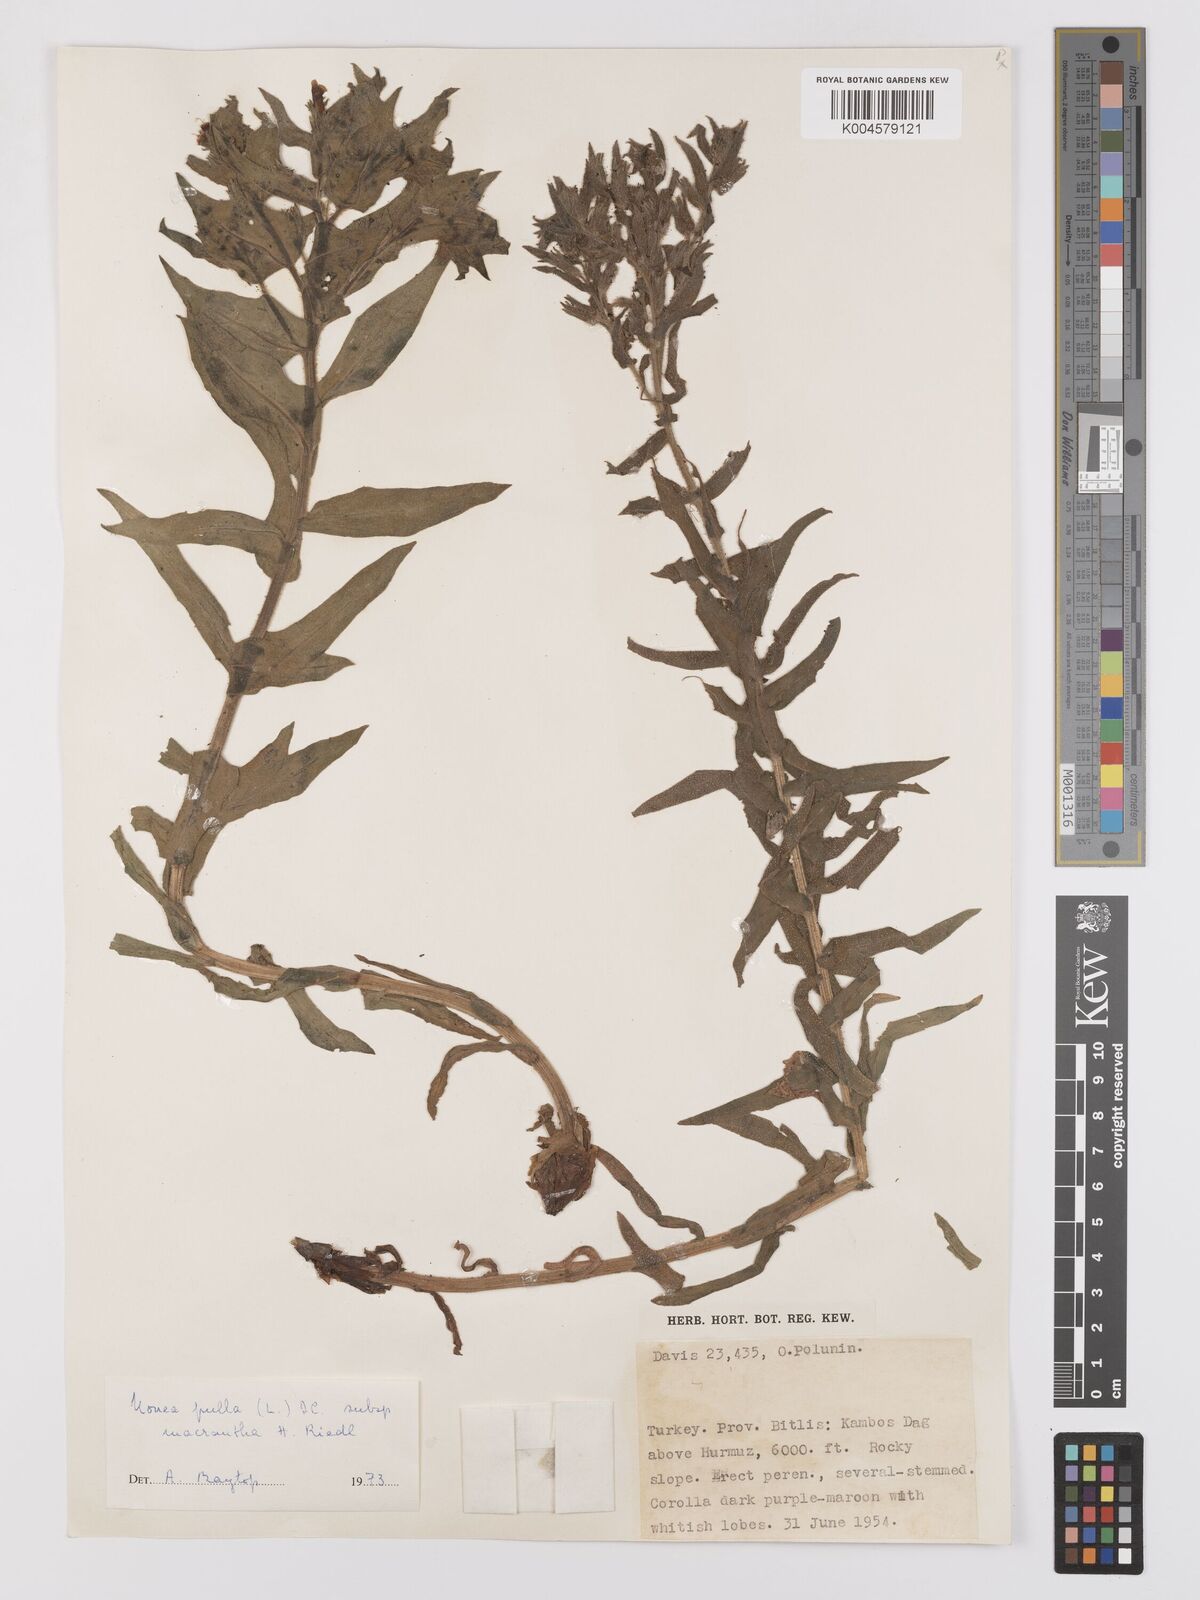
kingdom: Plantae
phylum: Tracheophyta
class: Magnoliopsida
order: Boraginales
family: Boraginaceae
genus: Nonea
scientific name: Nonea pulla
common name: Brown nonea
